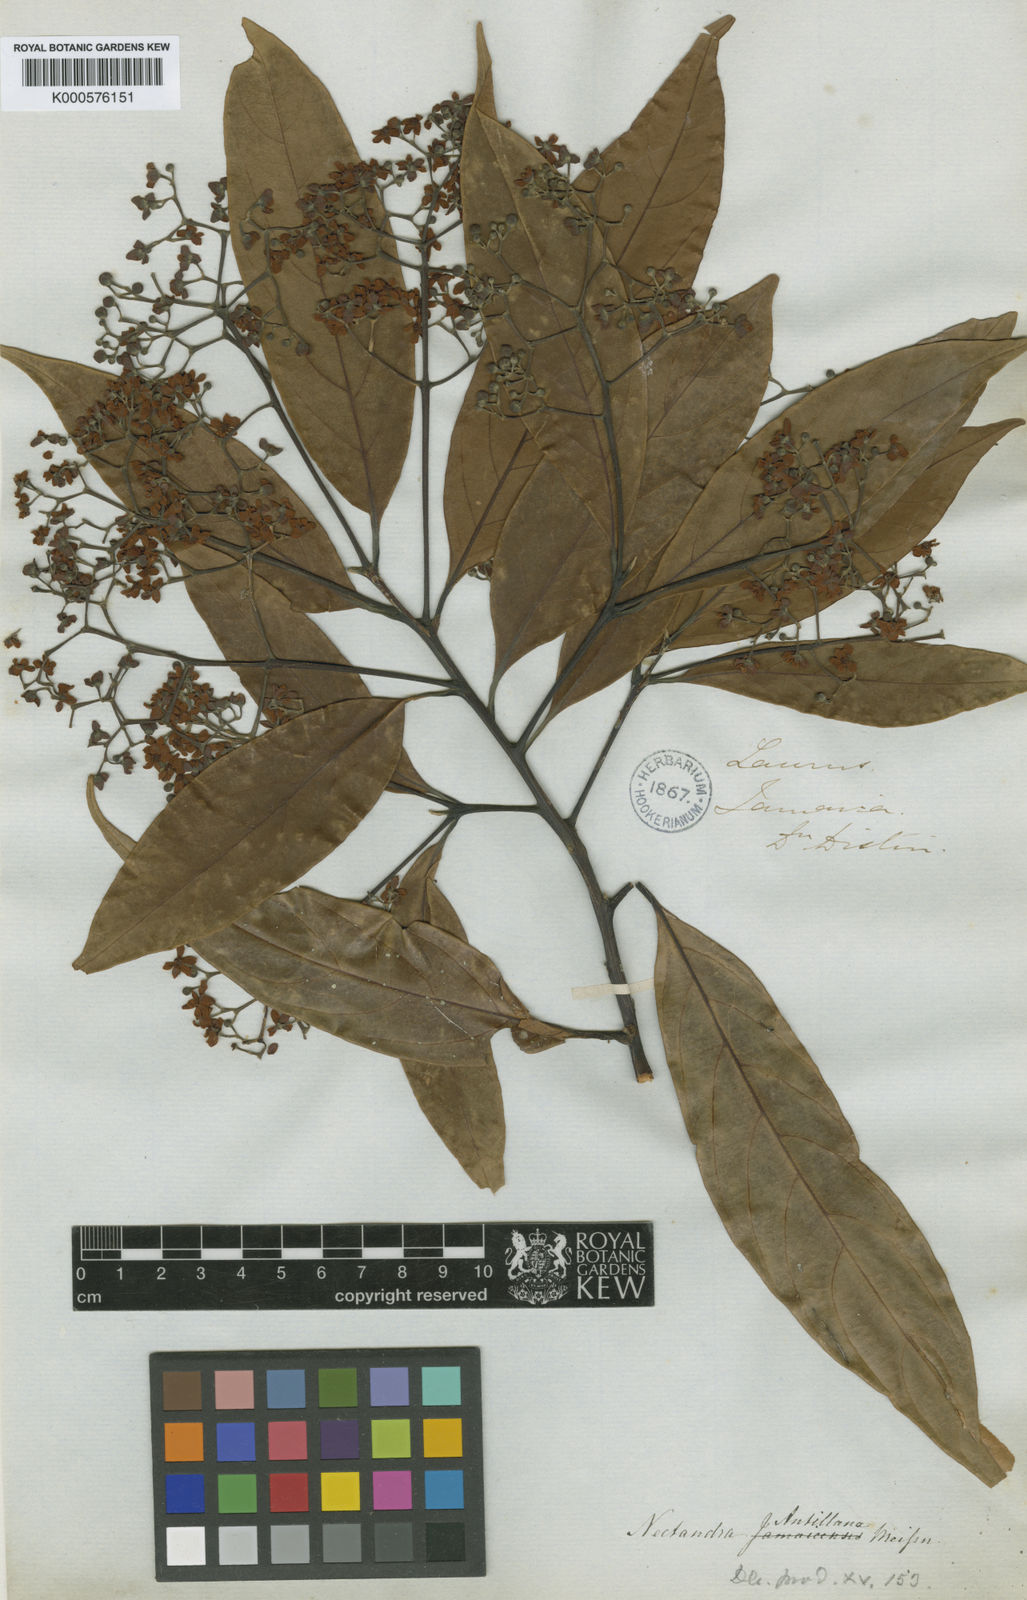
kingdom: Plantae
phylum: Tracheophyta
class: Magnoliopsida
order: Laurales
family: Lauraceae
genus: Nectandra
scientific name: Nectandra globosa
